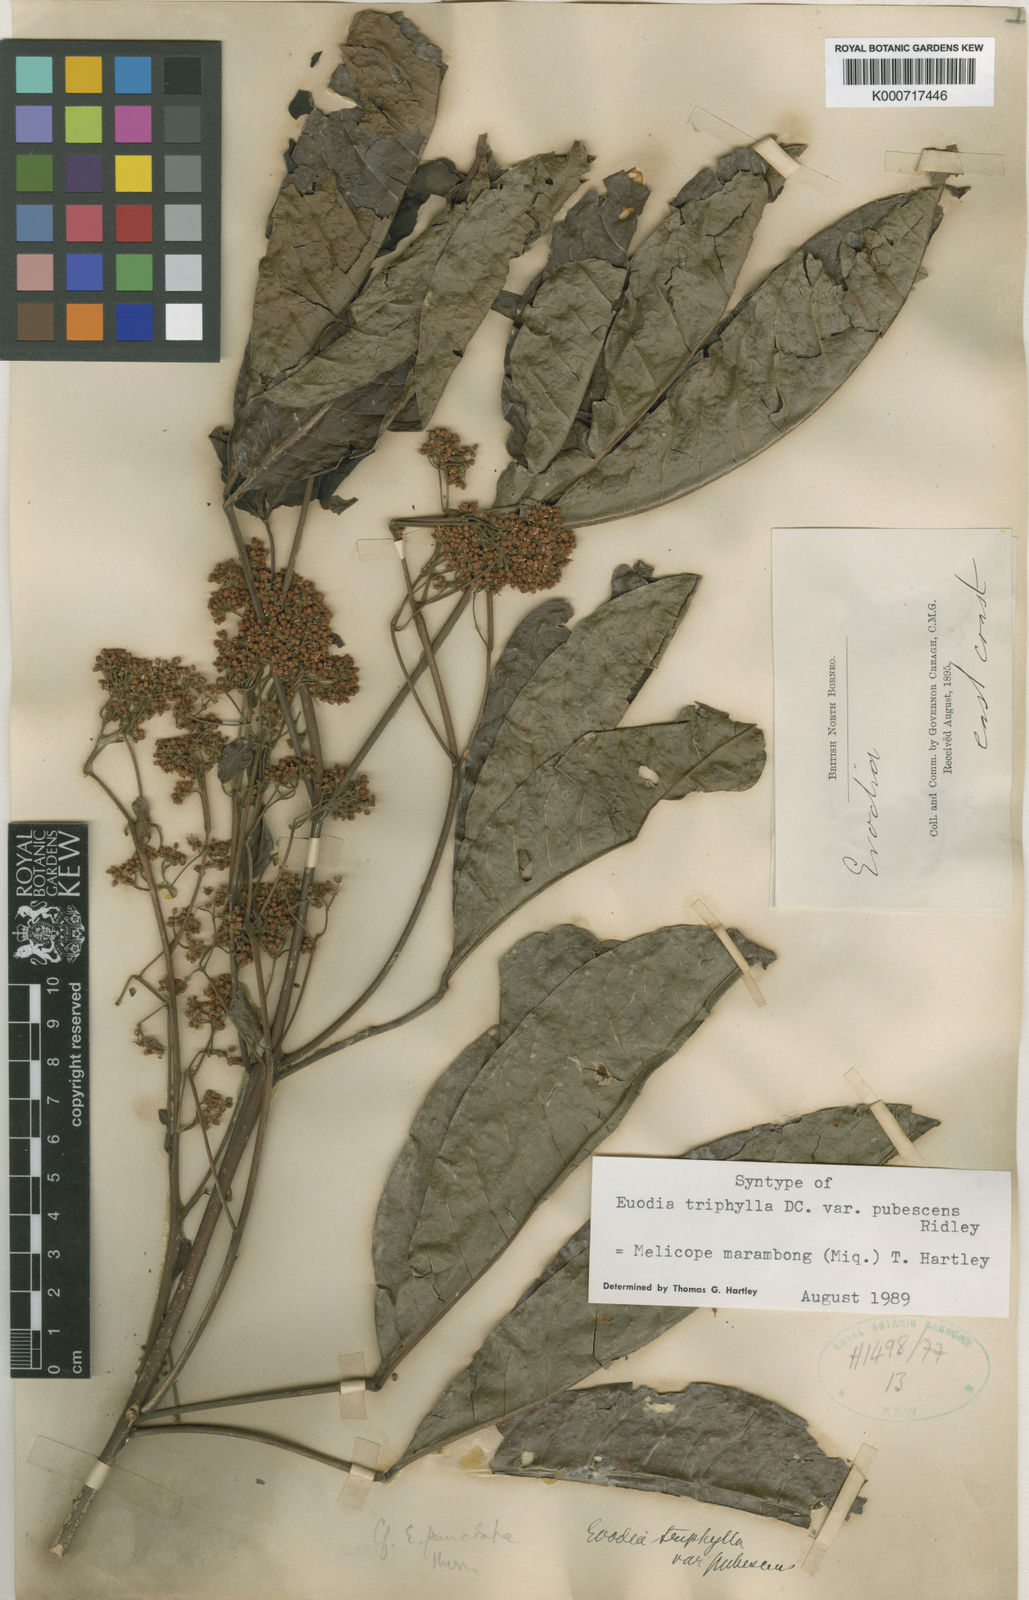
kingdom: Plantae
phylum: Tracheophyta
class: Magnoliopsida
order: Sapindales
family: Rutaceae
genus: Melicope
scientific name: Melicope
